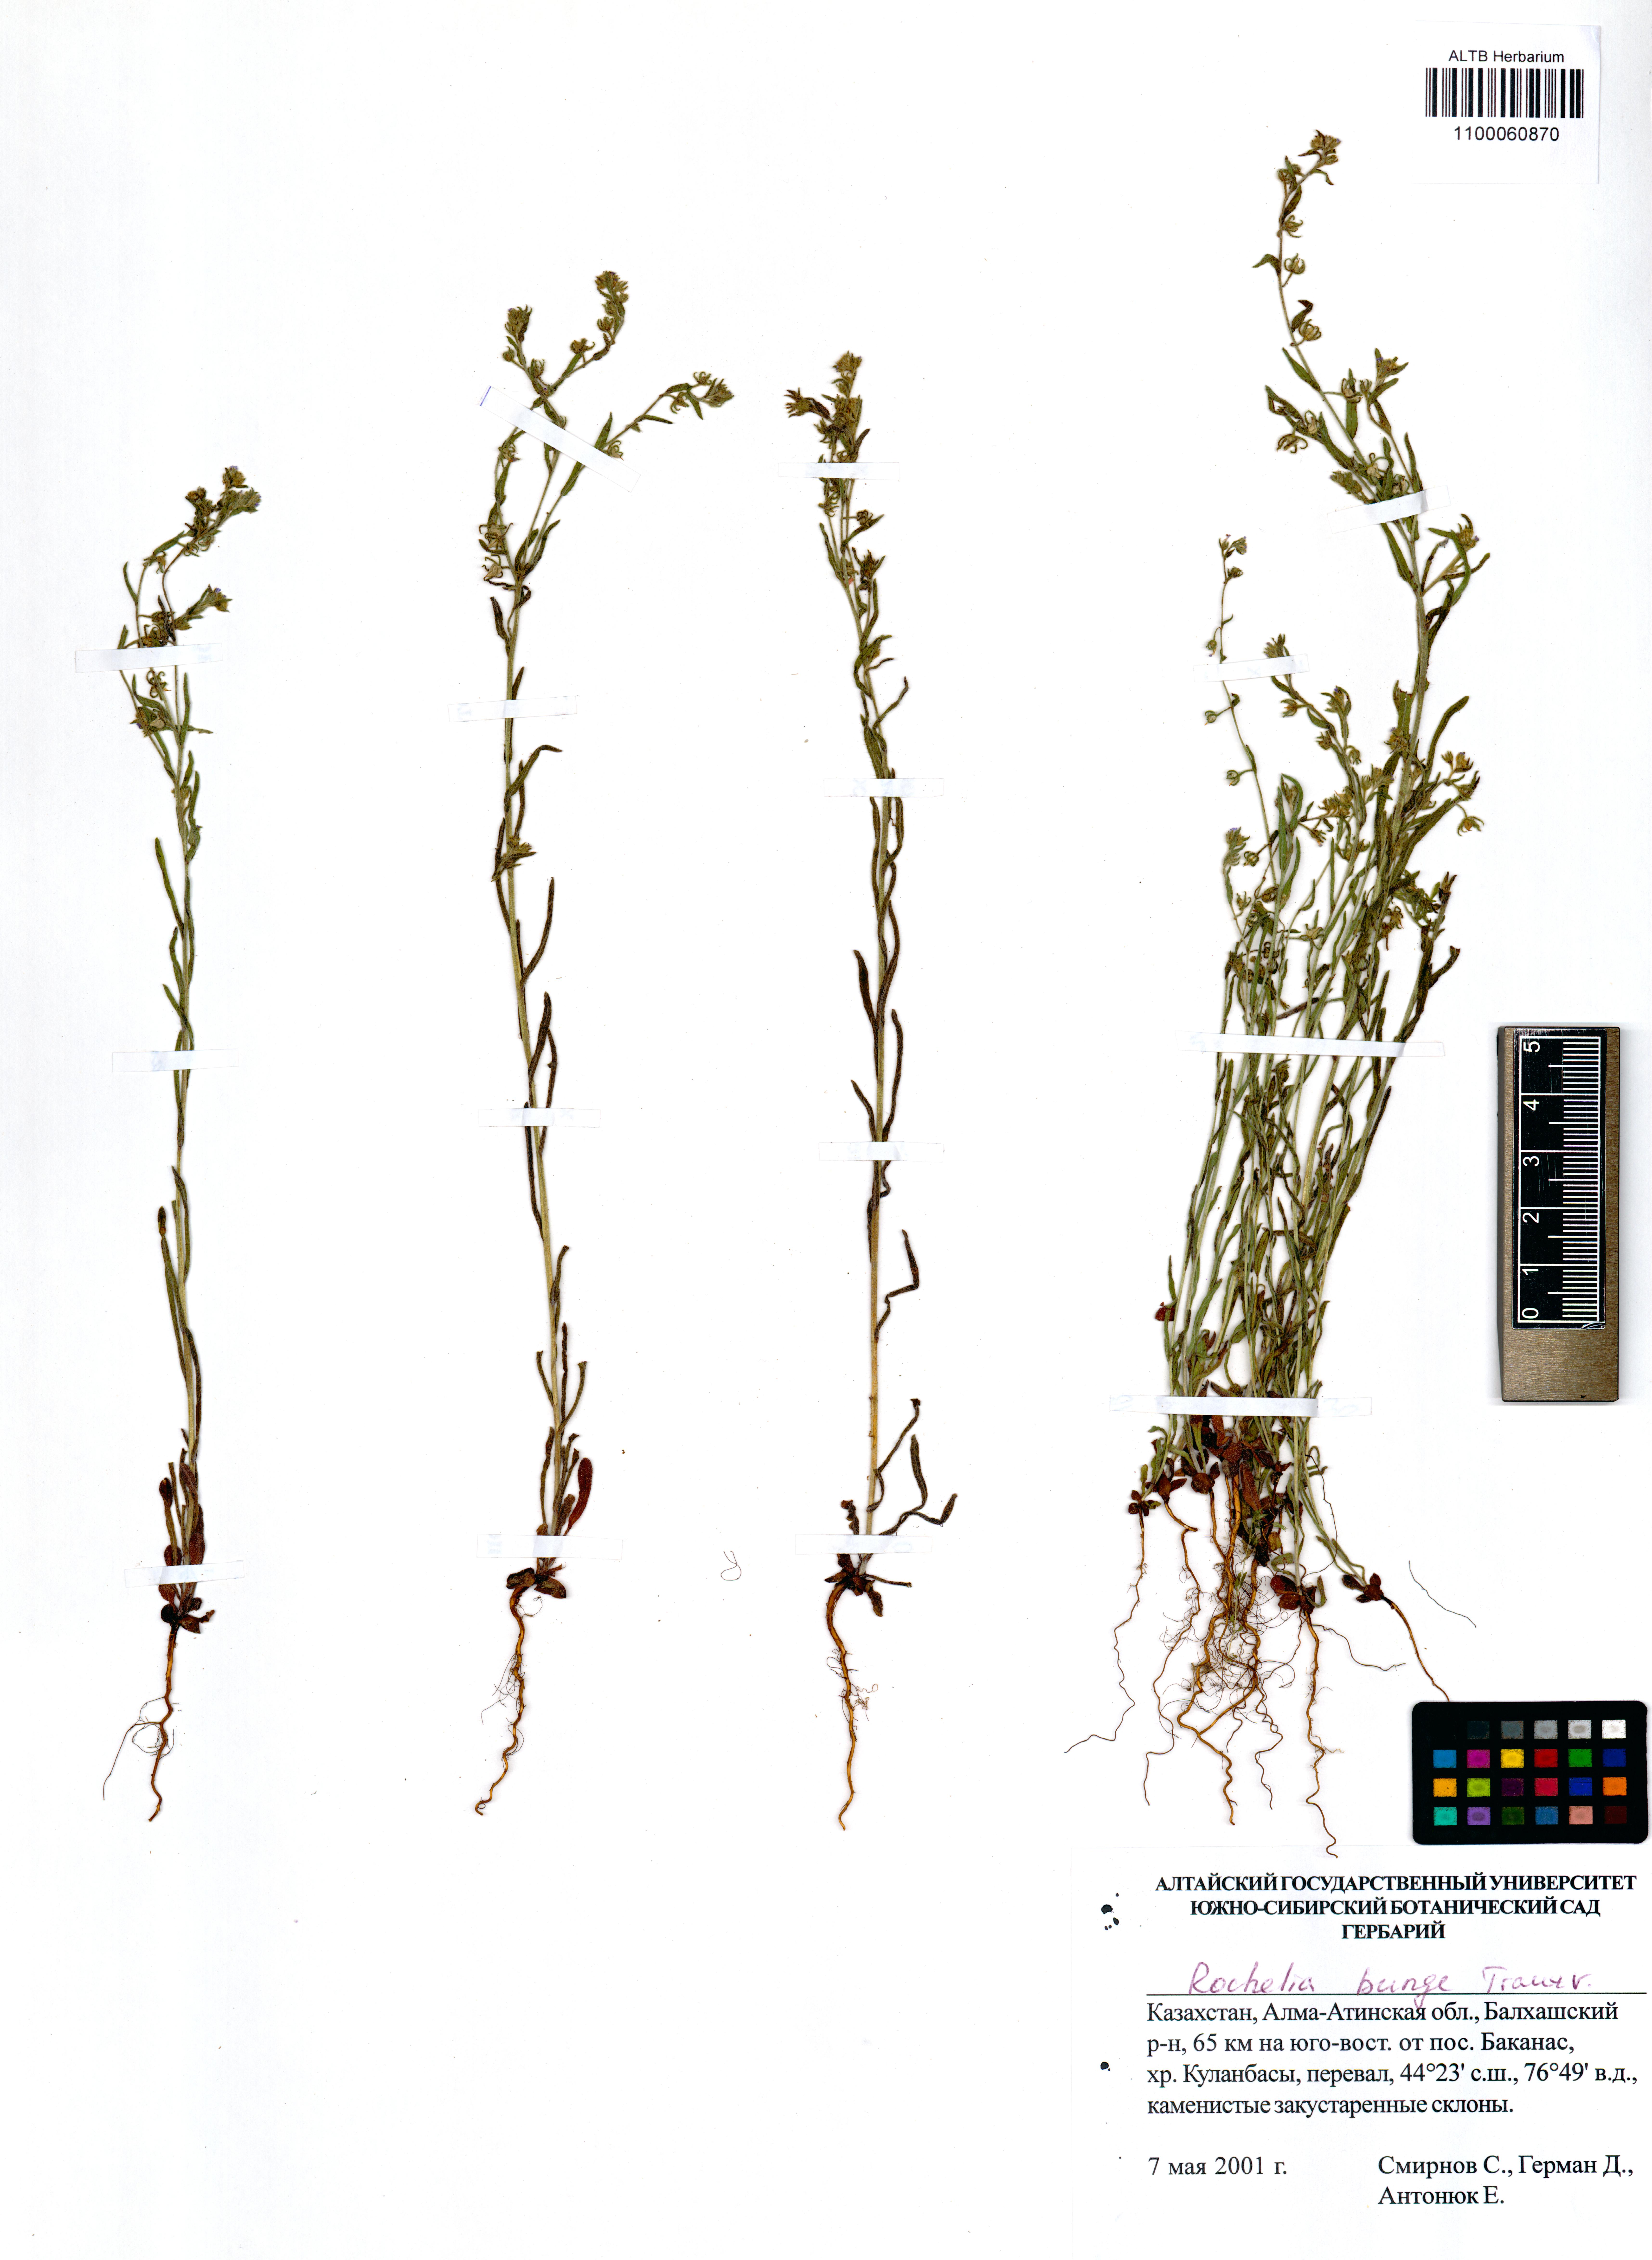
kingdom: Plantae
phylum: Tracheophyta
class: Magnoliopsida
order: Boraginales
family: Boraginaceae
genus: Rochelia
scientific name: Rochelia bungei
